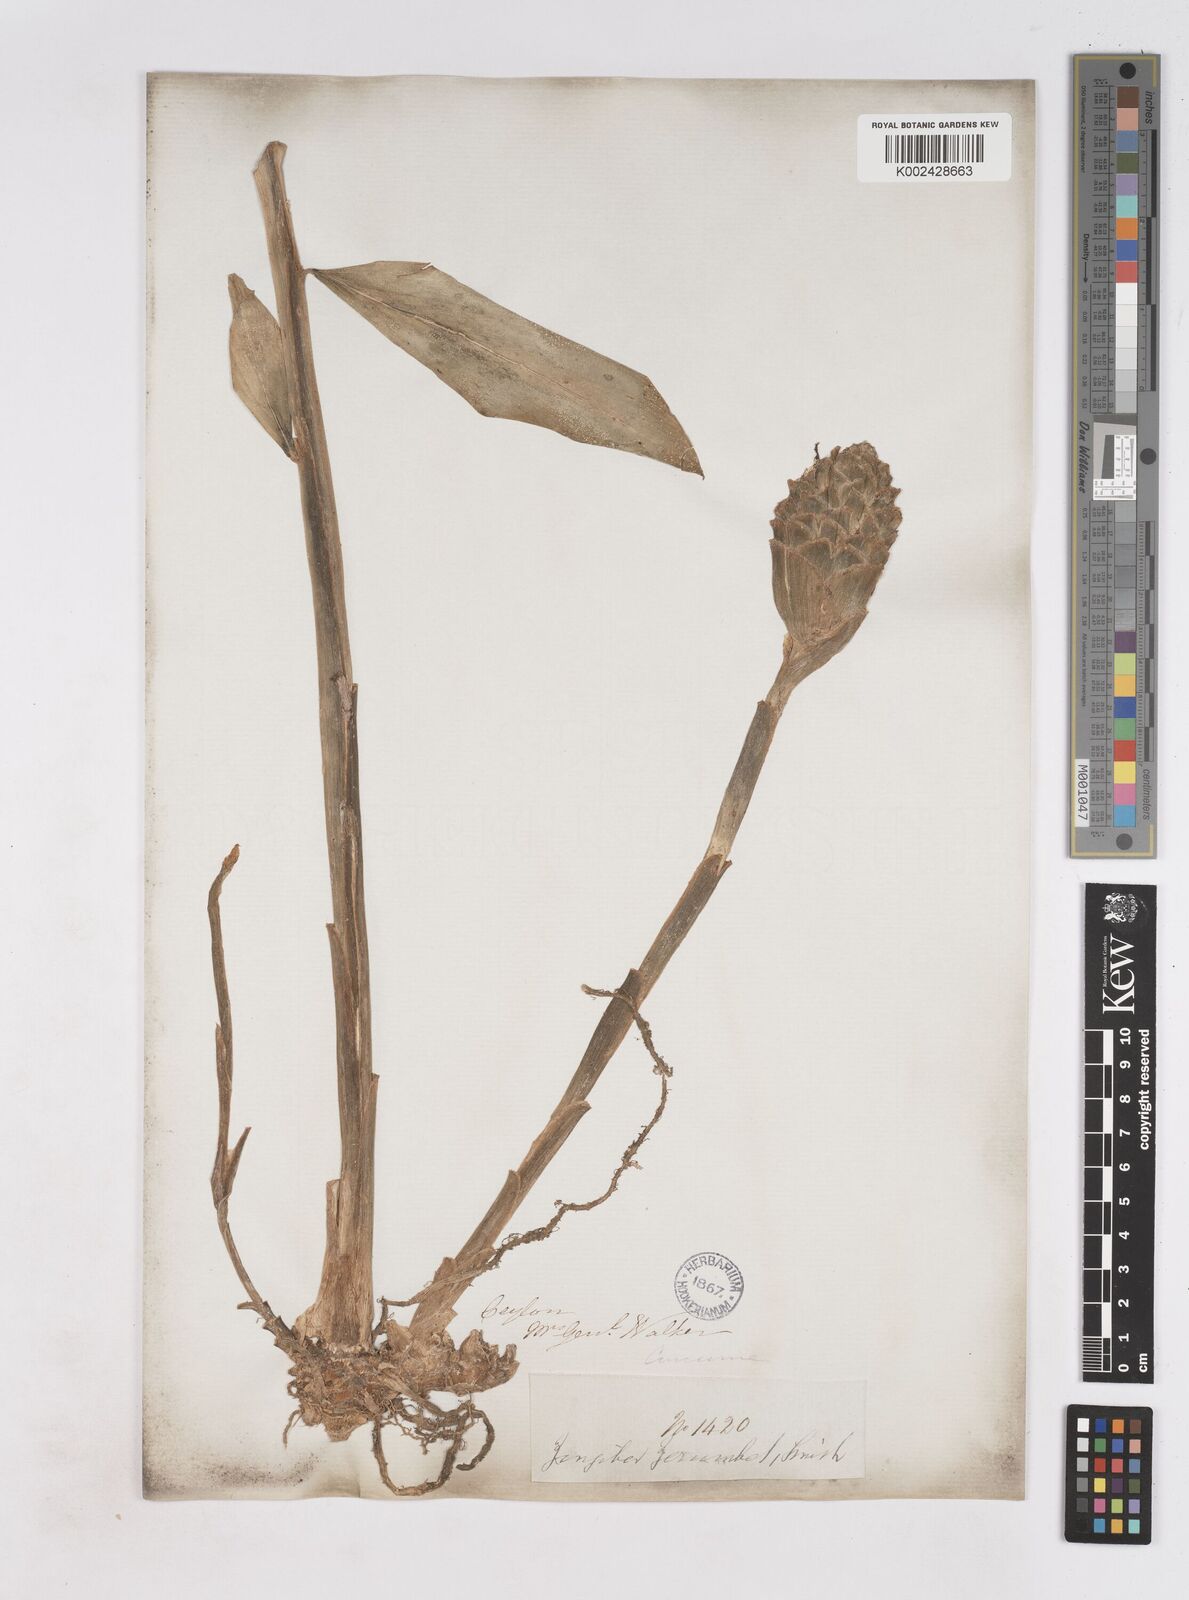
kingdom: Plantae
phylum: Tracheophyta
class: Liliopsida
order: Zingiberales
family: Zingiberaceae
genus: Zingiber
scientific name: Zingiber zerumbet
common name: Bitter ginger
